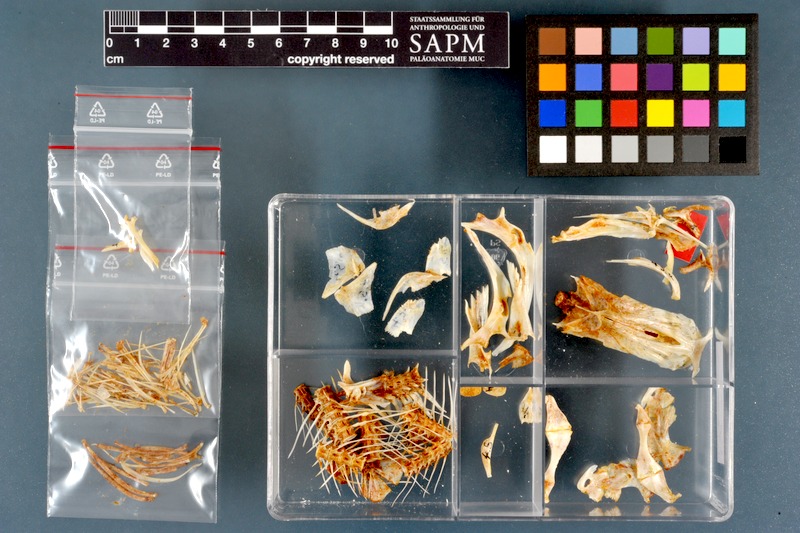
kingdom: Animalia
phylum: Chordata
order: Siluriformes
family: Schilbeidae
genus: Schilbe
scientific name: Schilbe uranoscopus
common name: Egyptian butter catfish
